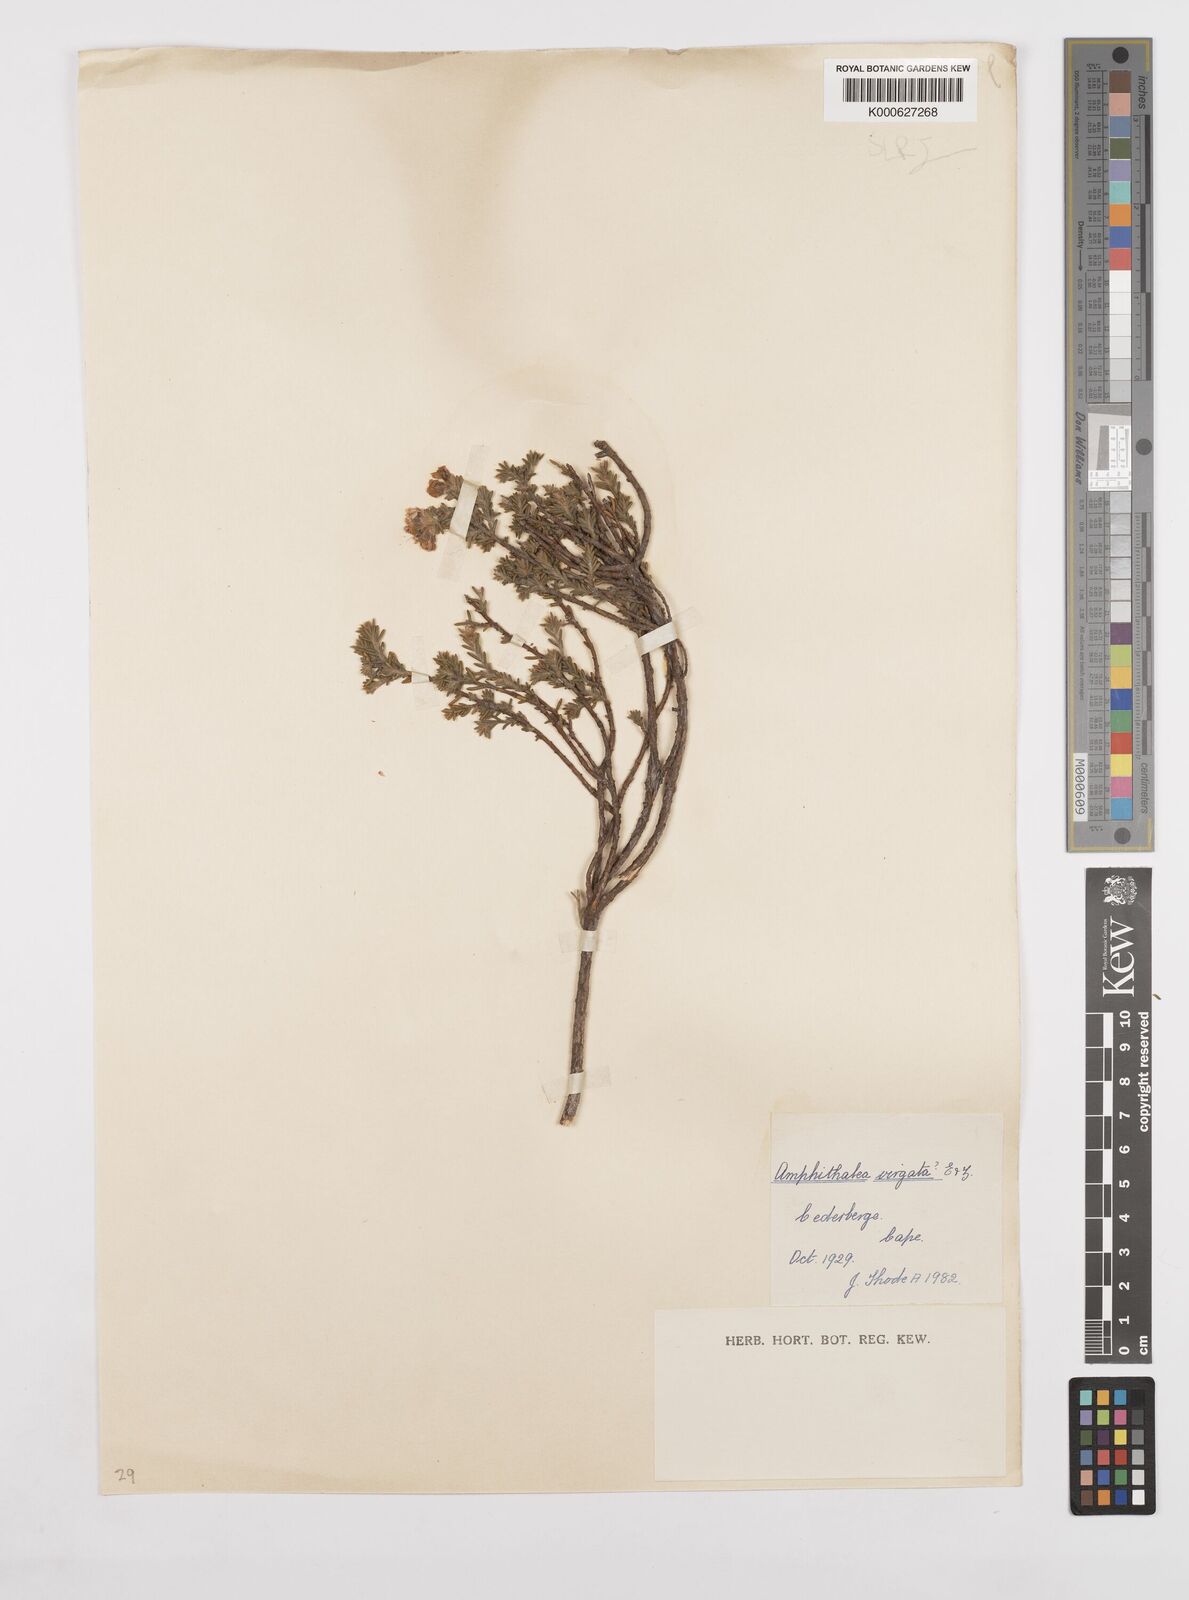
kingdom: Plantae
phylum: Tracheophyta
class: Magnoliopsida
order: Fabales
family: Fabaceae
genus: Amphithalea
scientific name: Amphithalea villosa
